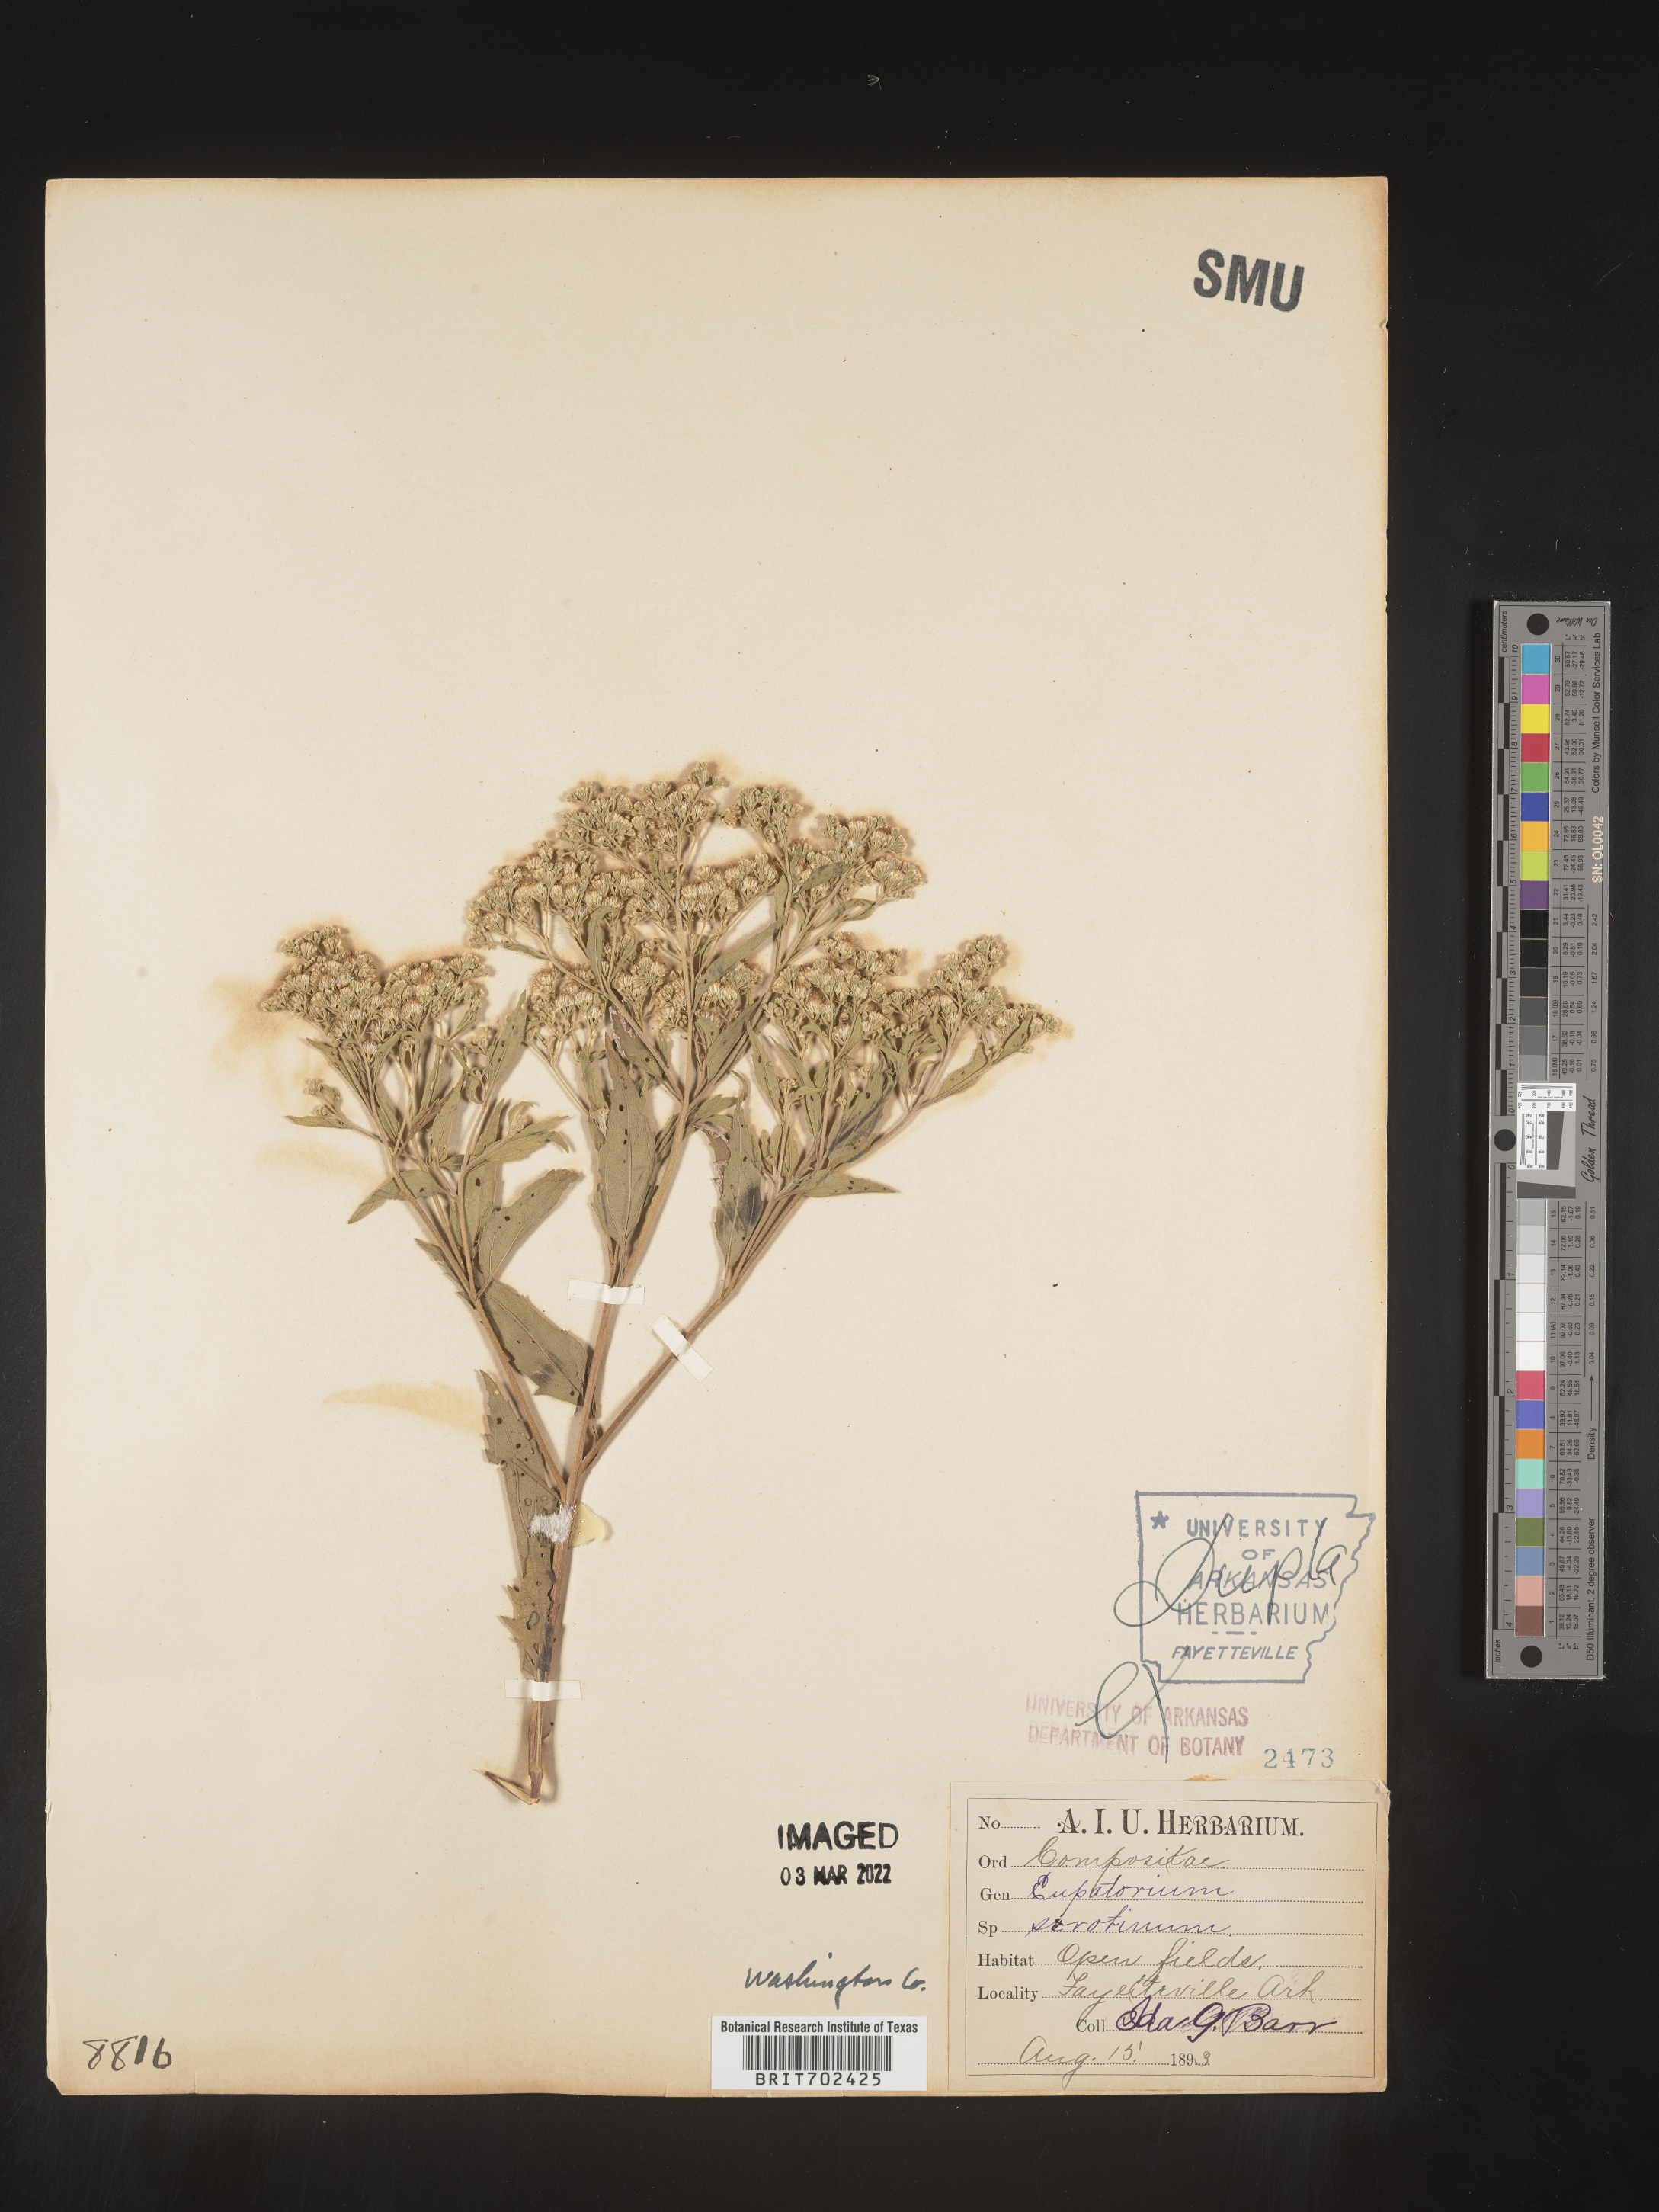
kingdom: Plantae
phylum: Tracheophyta
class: Magnoliopsida
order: Asterales
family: Asteraceae
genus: Eupatorium
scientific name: Eupatorium serotinum
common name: Late boneset
